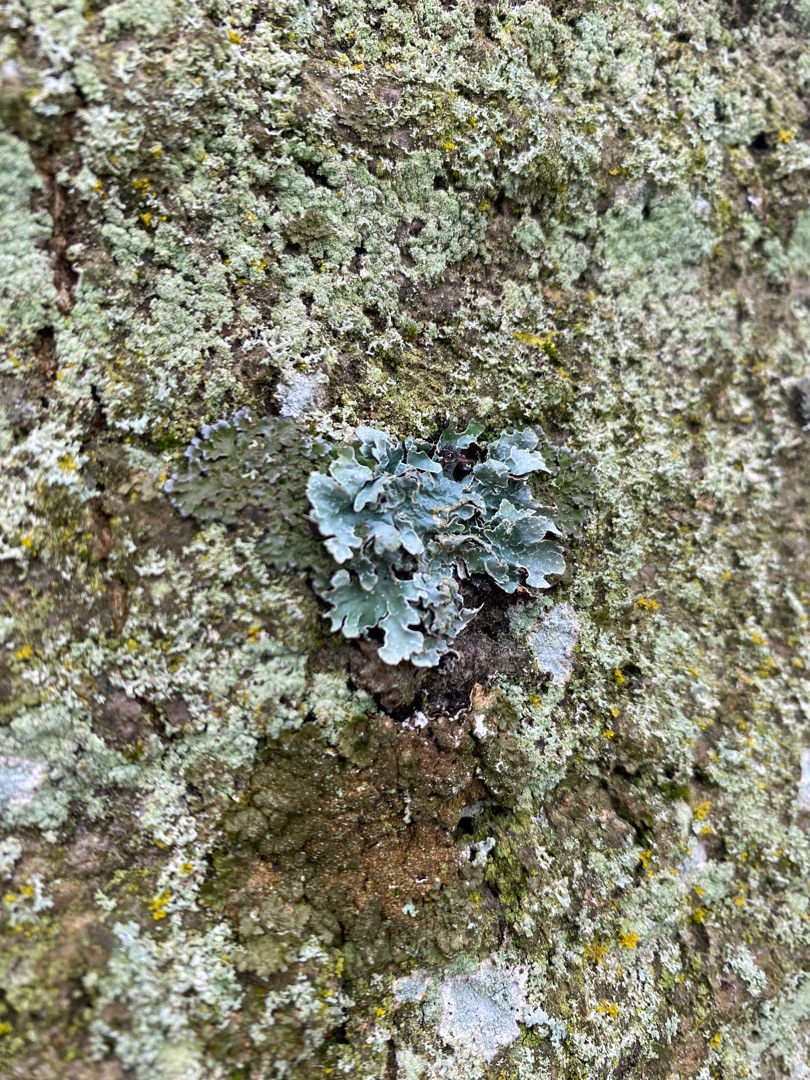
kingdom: Fungi
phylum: Ascomycota
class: Lecanoromycetes
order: Lecanorales
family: Parmeliaceae
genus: Parmelia
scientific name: Parmelia sulcata
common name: Rynket skållav
